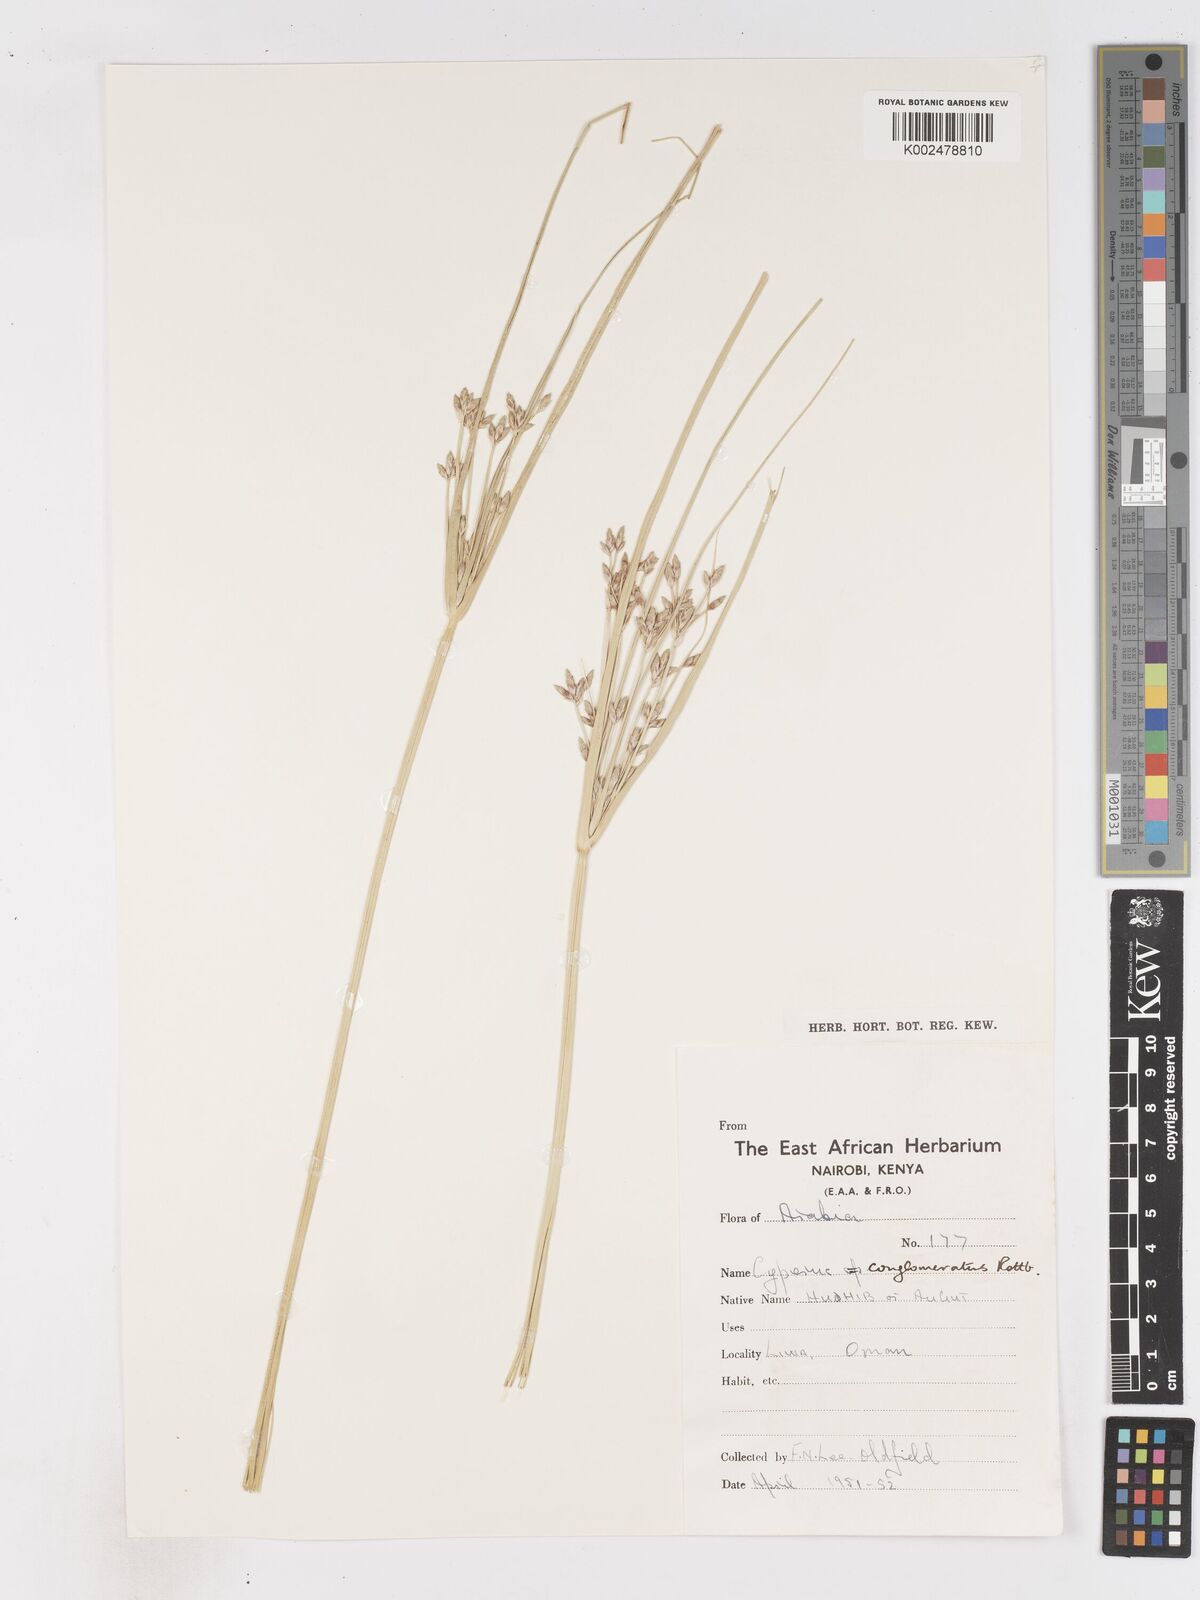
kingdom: Plantae
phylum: Tracheophyta
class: Liliopsida
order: Poales
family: Cyperaceae
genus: Cyperus
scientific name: Cyperus aucheri
